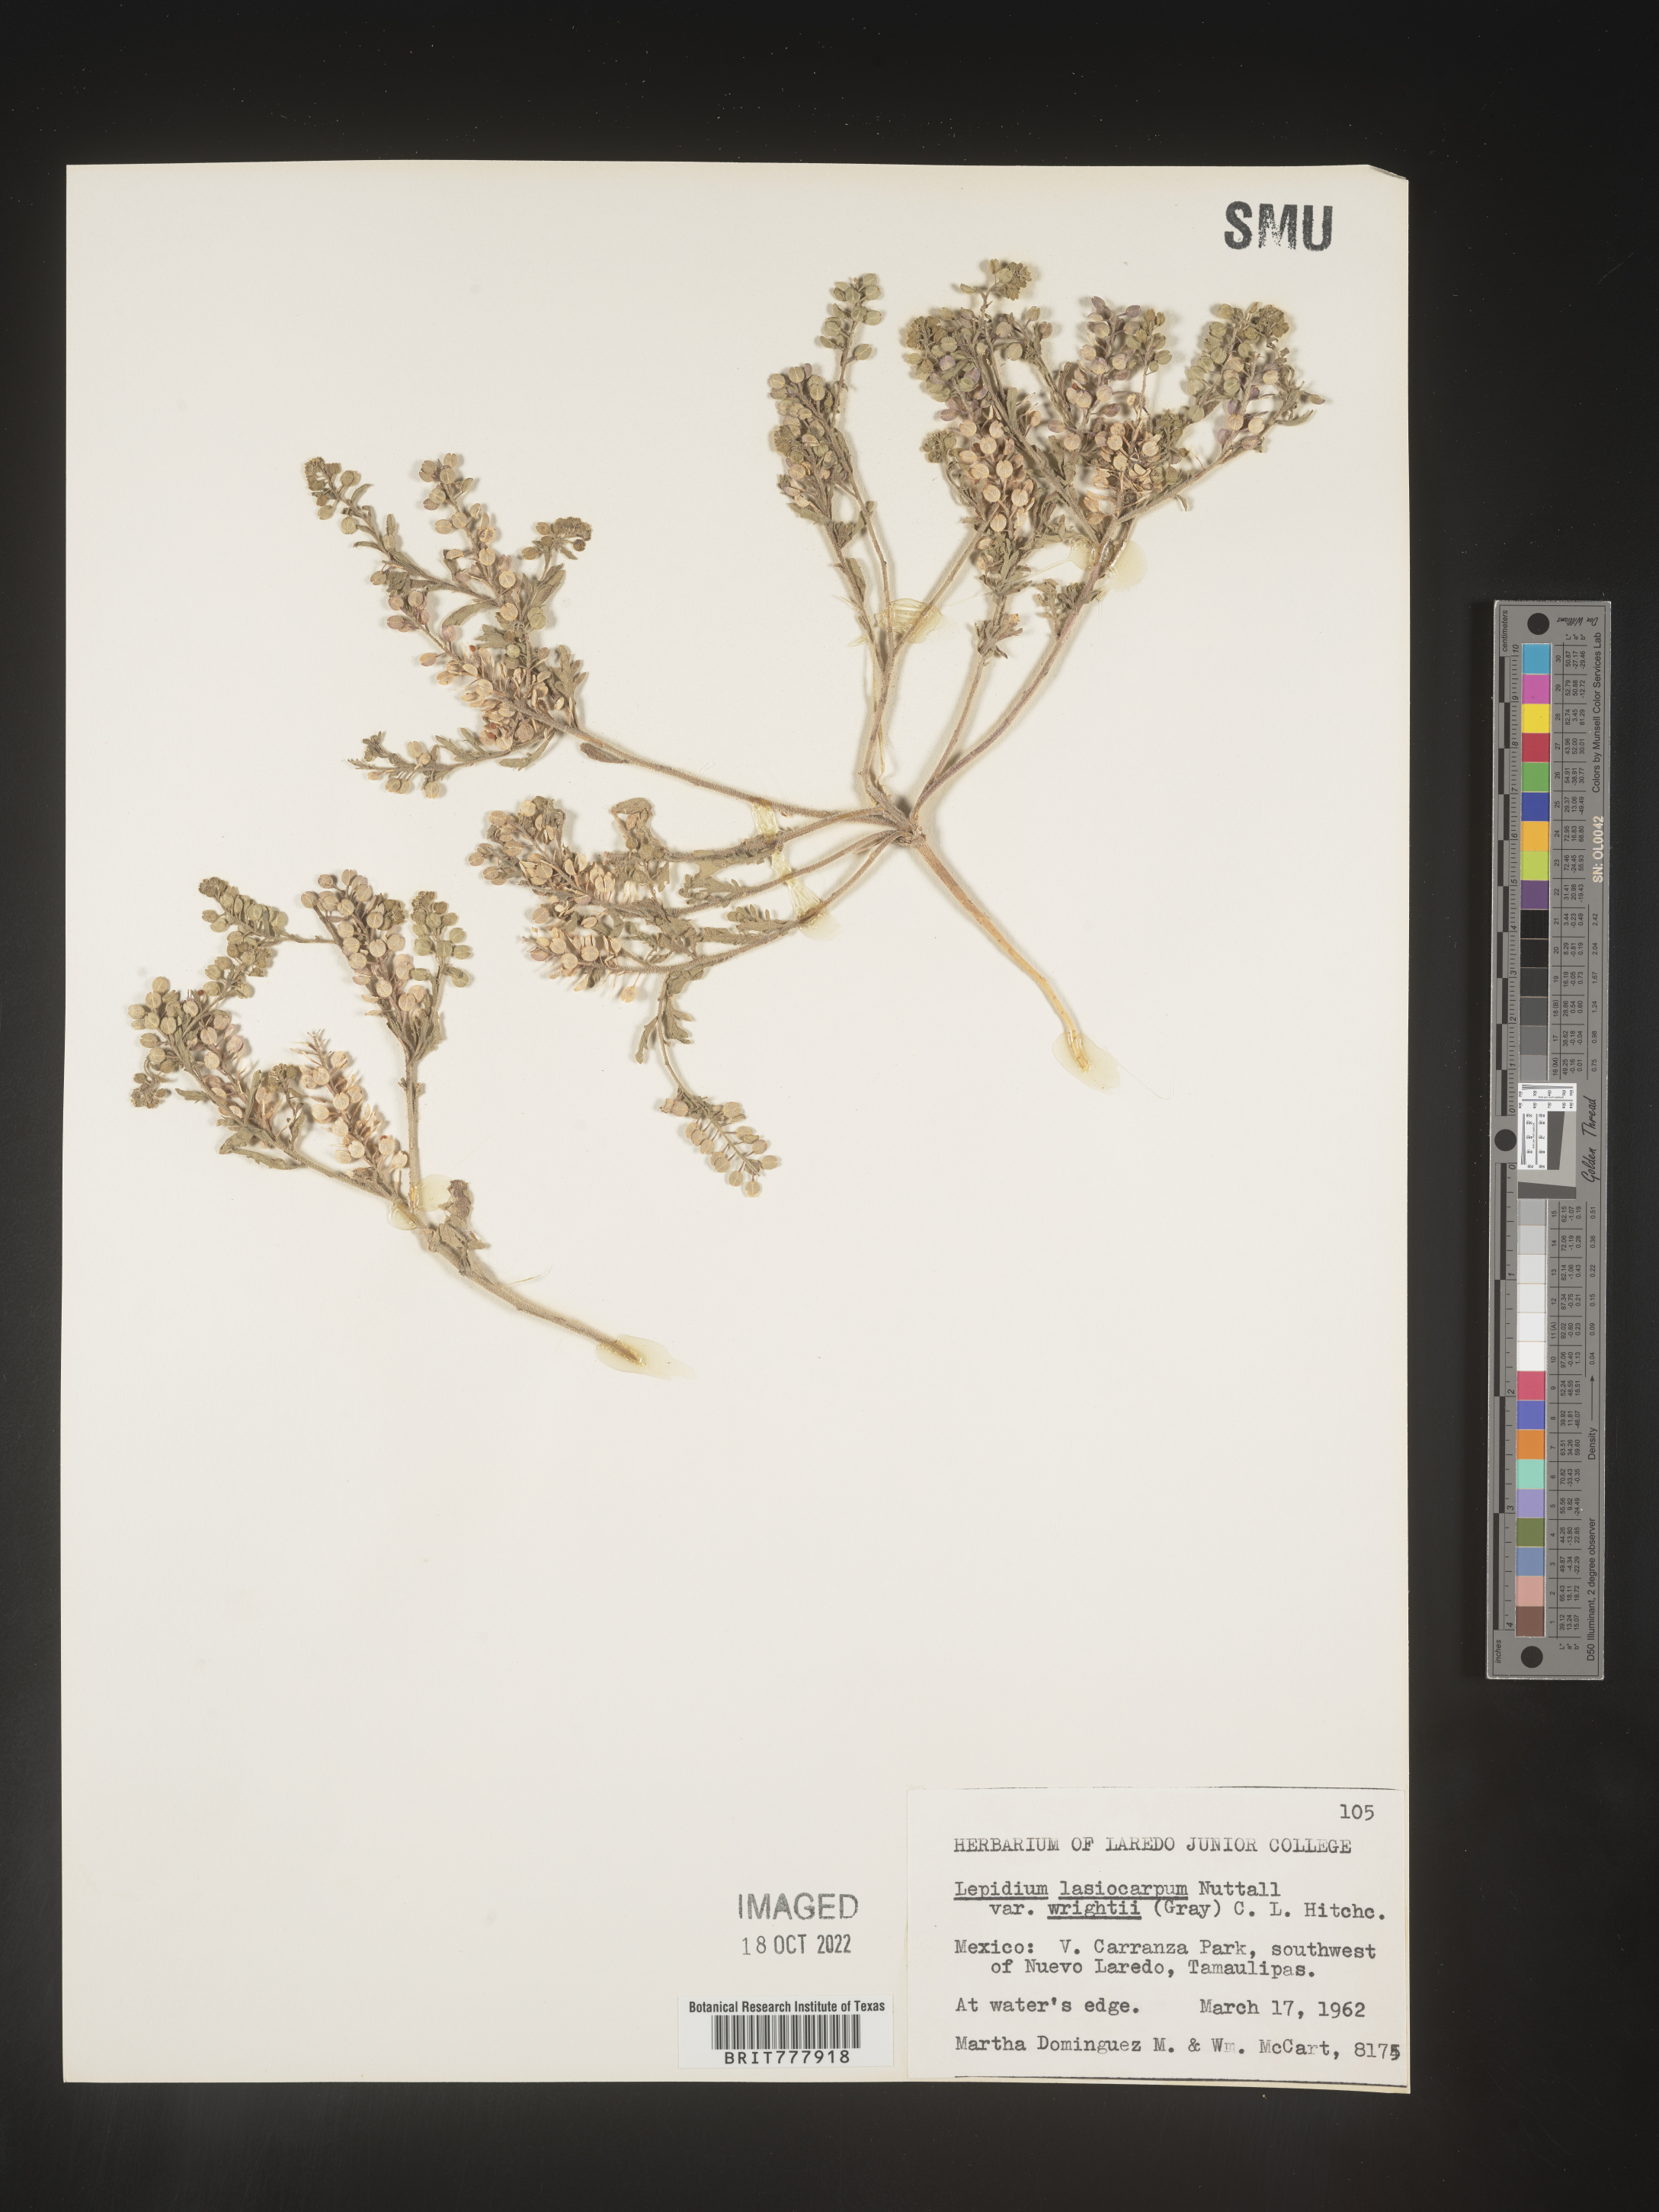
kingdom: Plantae
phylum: Tracheophyta
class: Magnoliopsida
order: Brassicales
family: Brassicaceae
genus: Lepidium
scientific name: Lepidium
